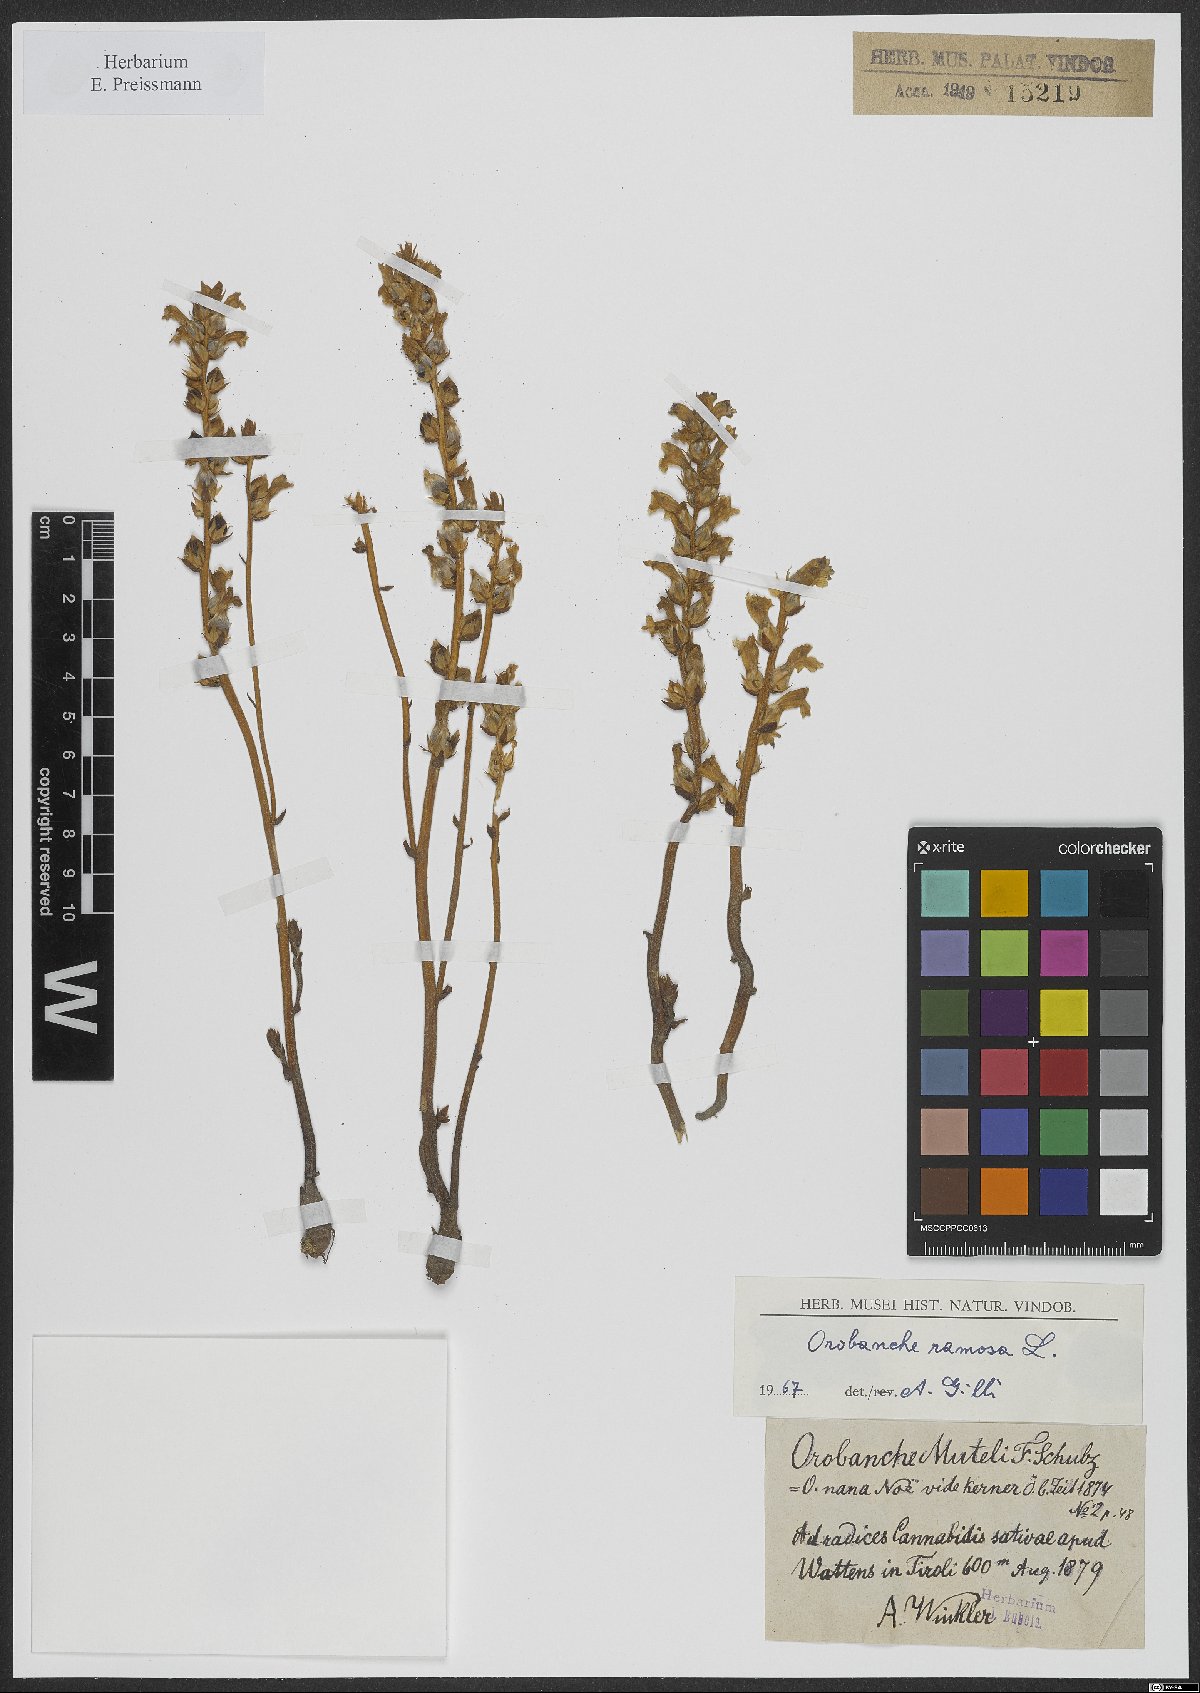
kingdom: Plantae
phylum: Tracheophyta
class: Magnoliopsida
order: Lamiales
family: Orobanchaceae
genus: Phelipanche
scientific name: Phelipanche ramosa
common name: Branched broomrape
